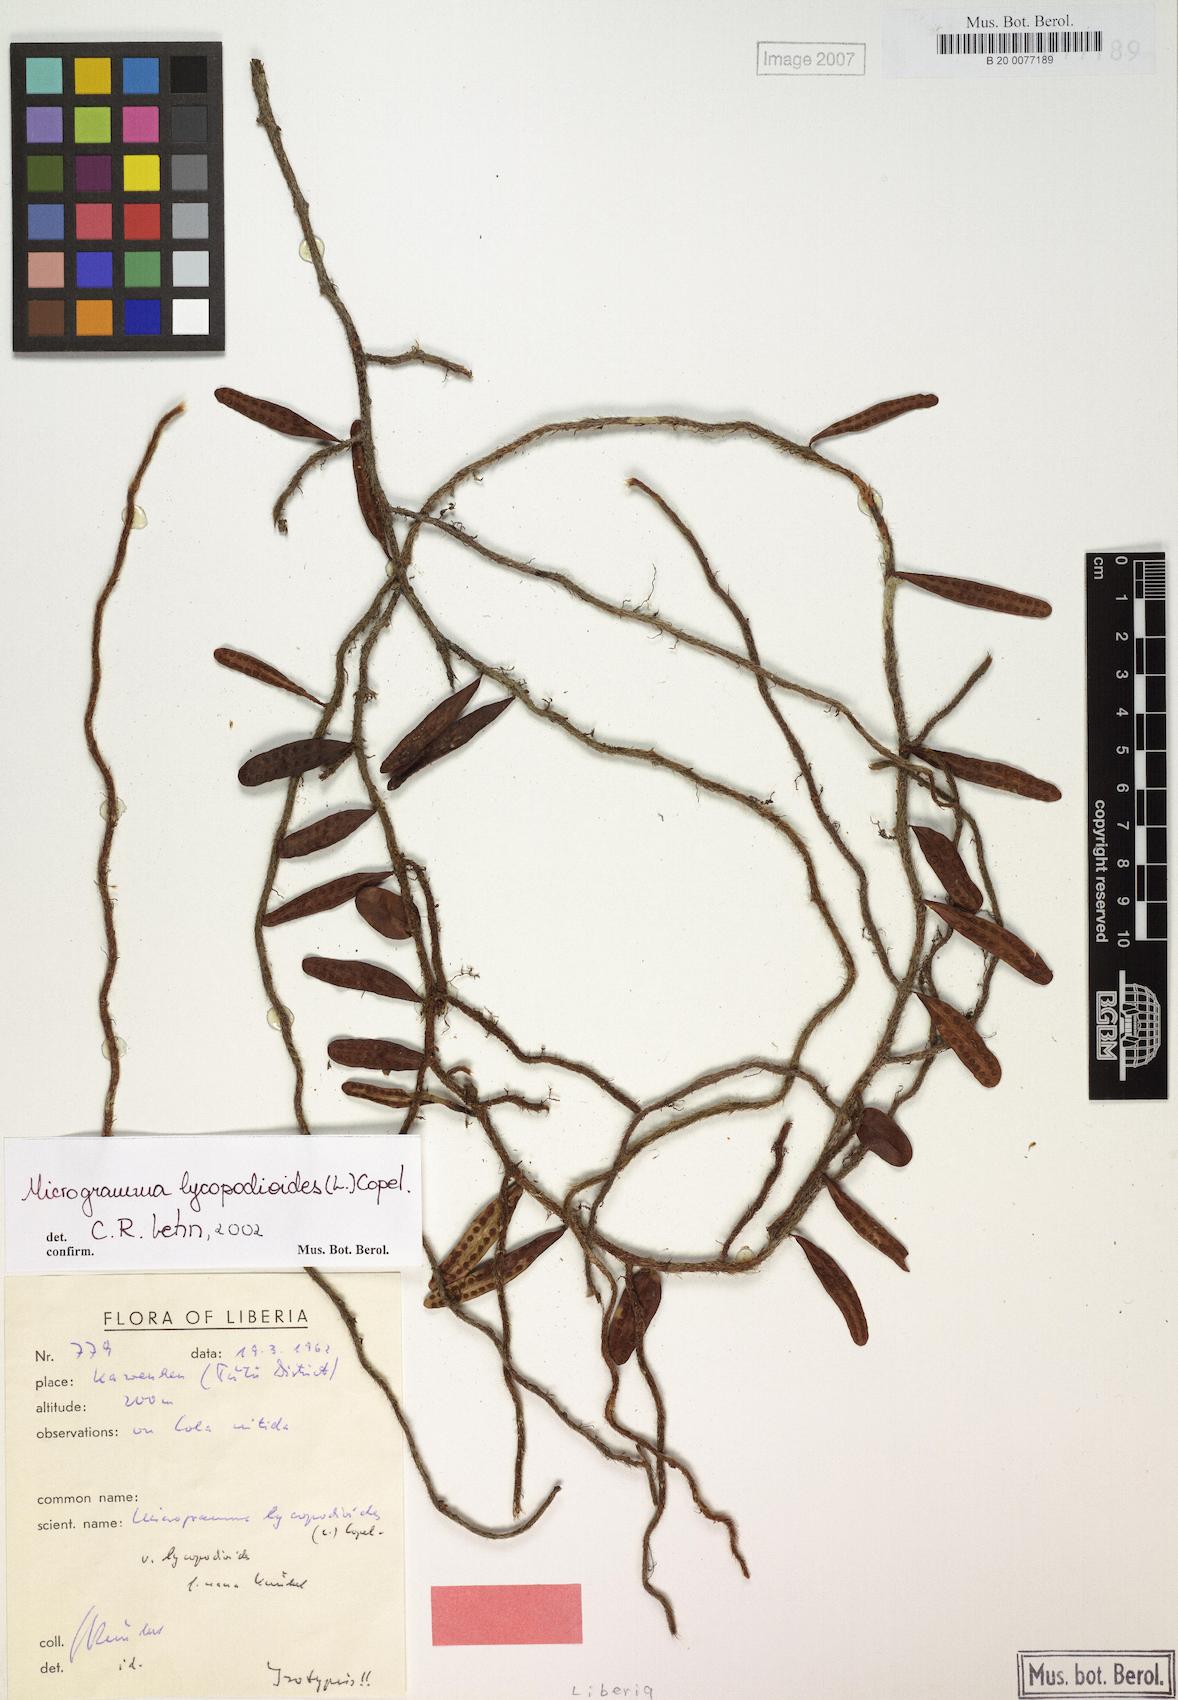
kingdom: Plantae
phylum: Tracheophyta
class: Polypodiopsida
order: Polypodiales
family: Polypodiaceae
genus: Microgramma
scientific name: Microgramma mauritiana
